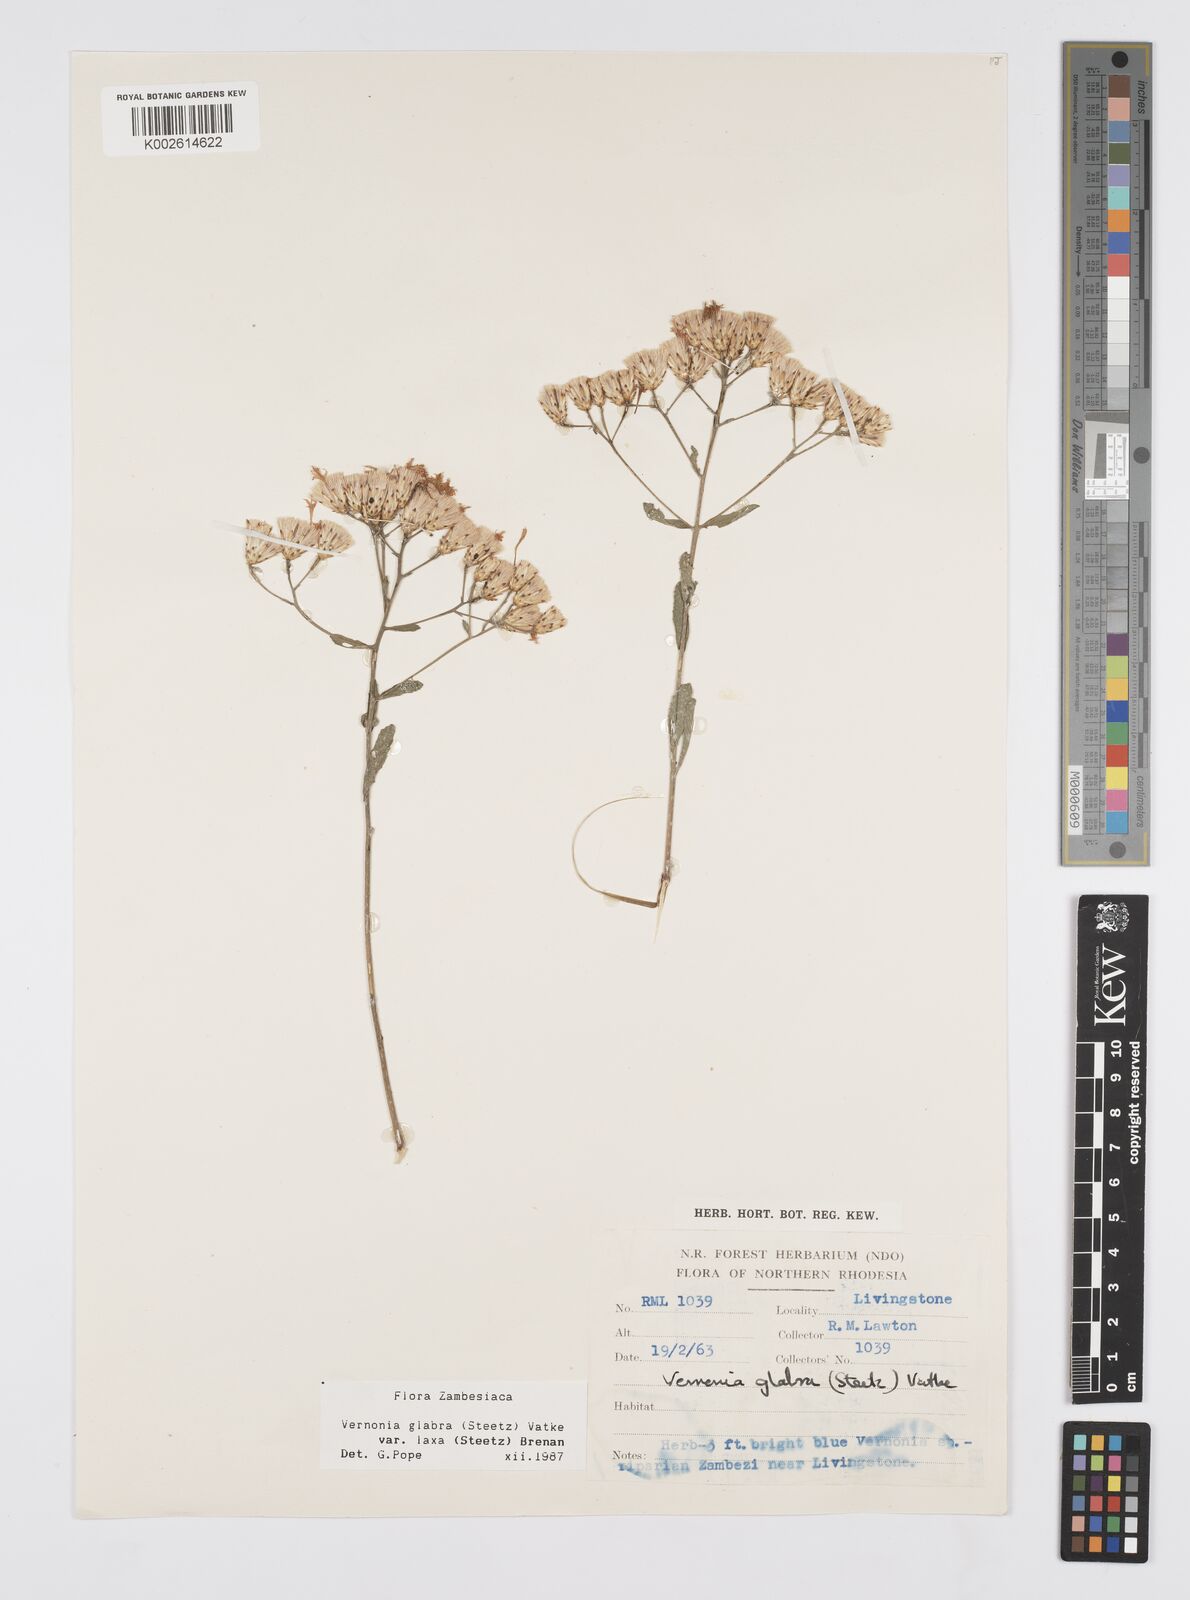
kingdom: Plantae
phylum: Tracheophyta
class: Magnoliopsida
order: Asterales
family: Asteraceae
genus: Linzia
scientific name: Linzia glabra
